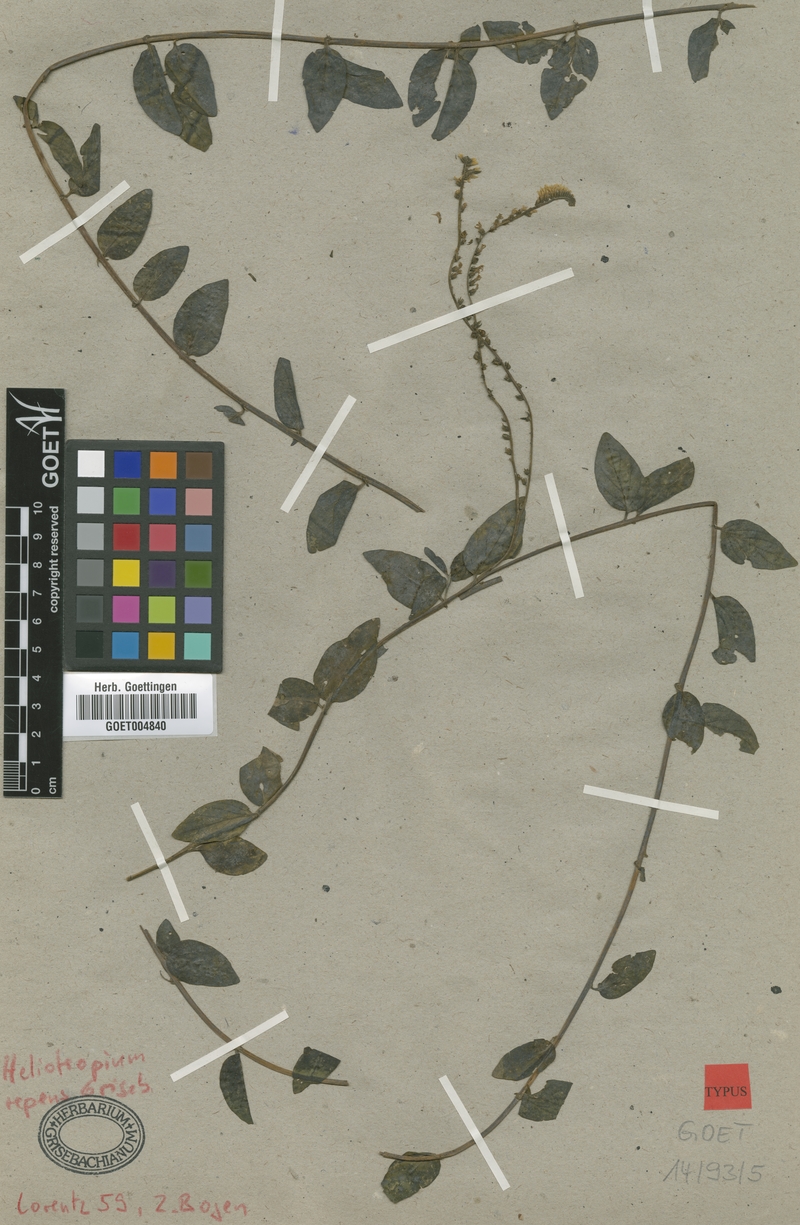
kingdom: Plantae
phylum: Tracheophyta
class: Magnoliopsida
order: Boraginales
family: Heliotropiaceae
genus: Heliotropium
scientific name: Heliotropium veronicifolium
